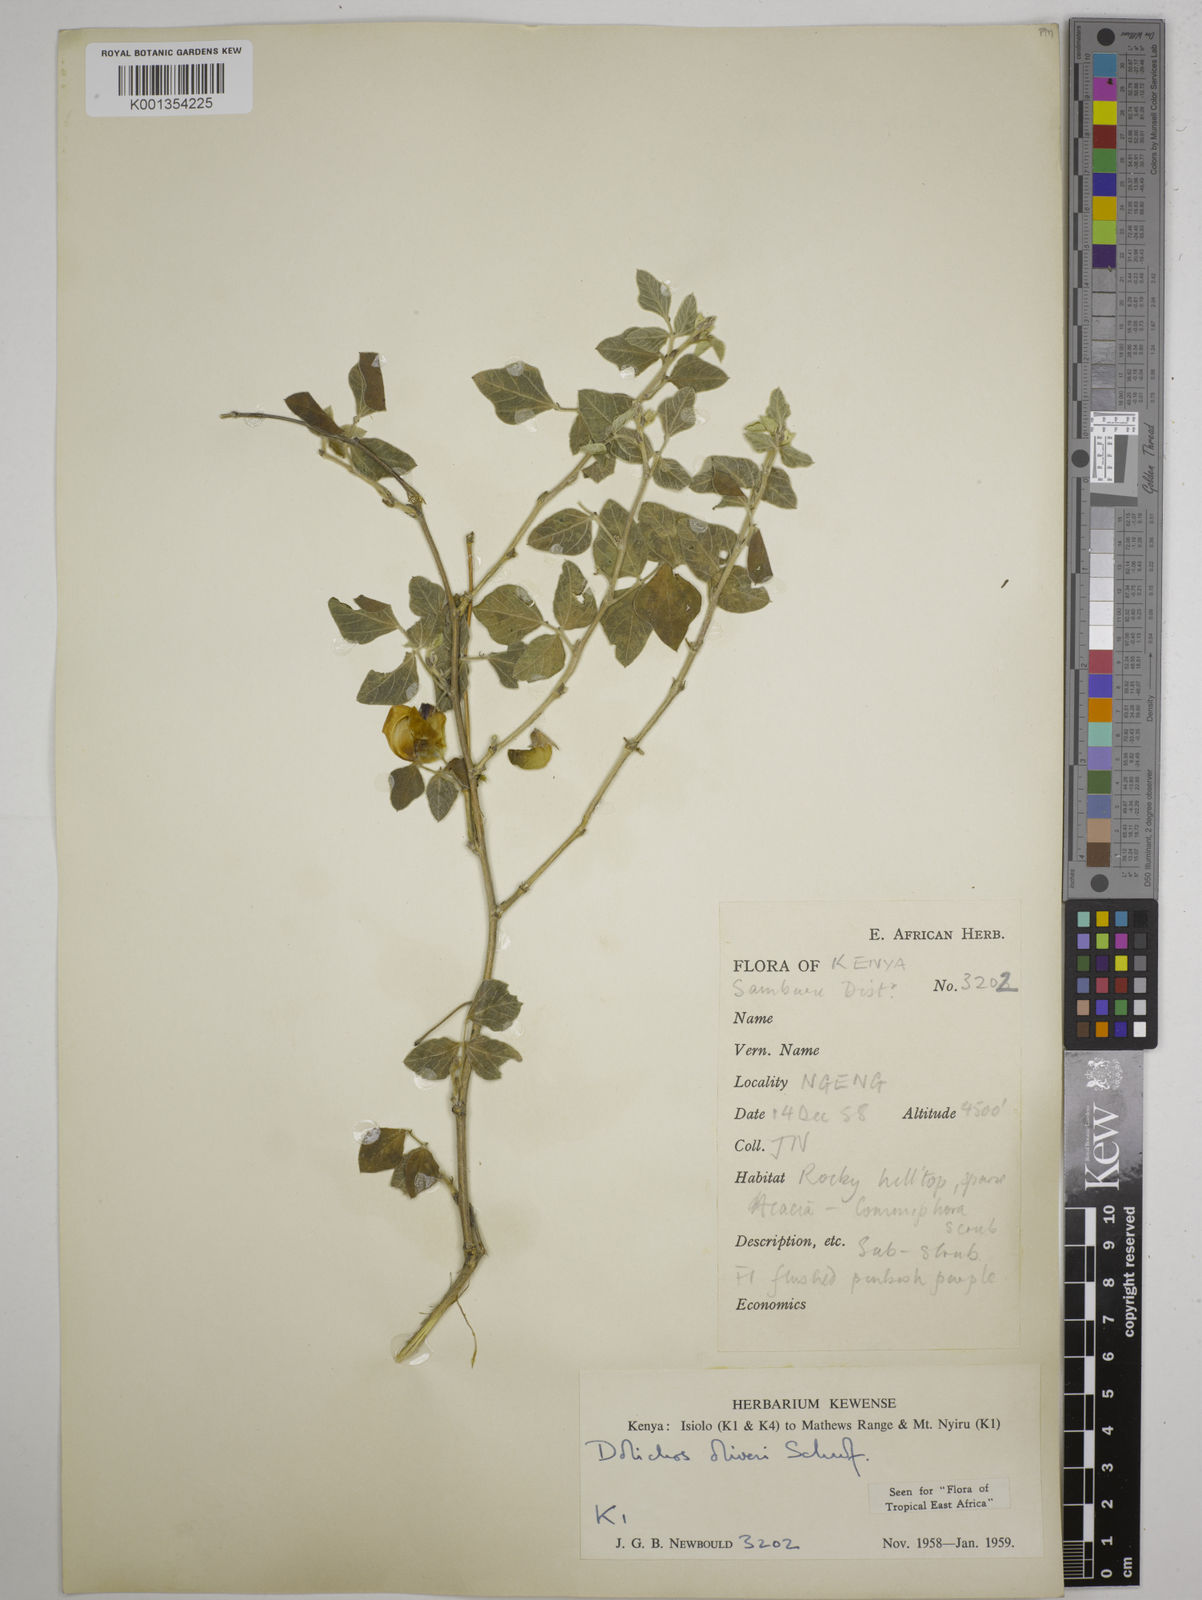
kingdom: Plantae
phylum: Tracheophyta
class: Magnoliopsida
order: Fabales
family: Fabaceae
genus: Dolichos
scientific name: Dolichos oliveri
